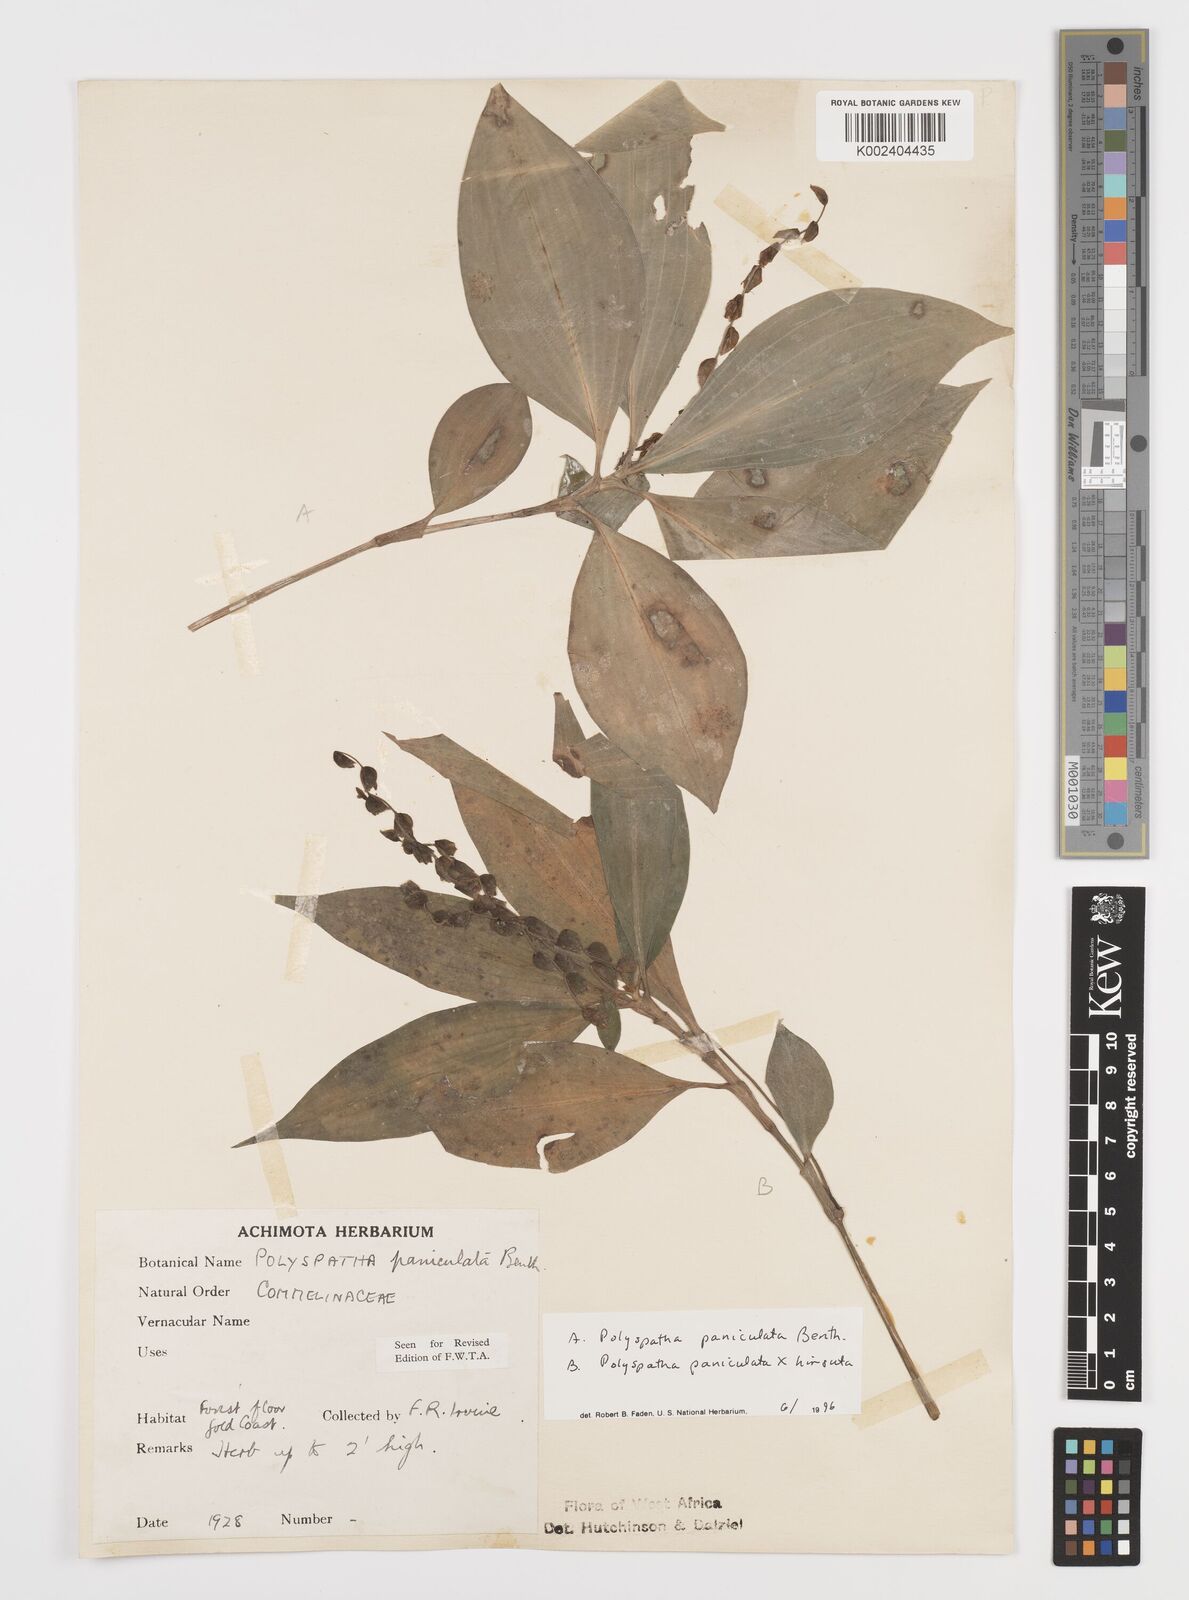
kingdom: Plantae
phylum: Tracheophyta
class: Liliopsida
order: Commelinales
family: Commelinaceae
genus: Polyspatha
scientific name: Polyspatha
